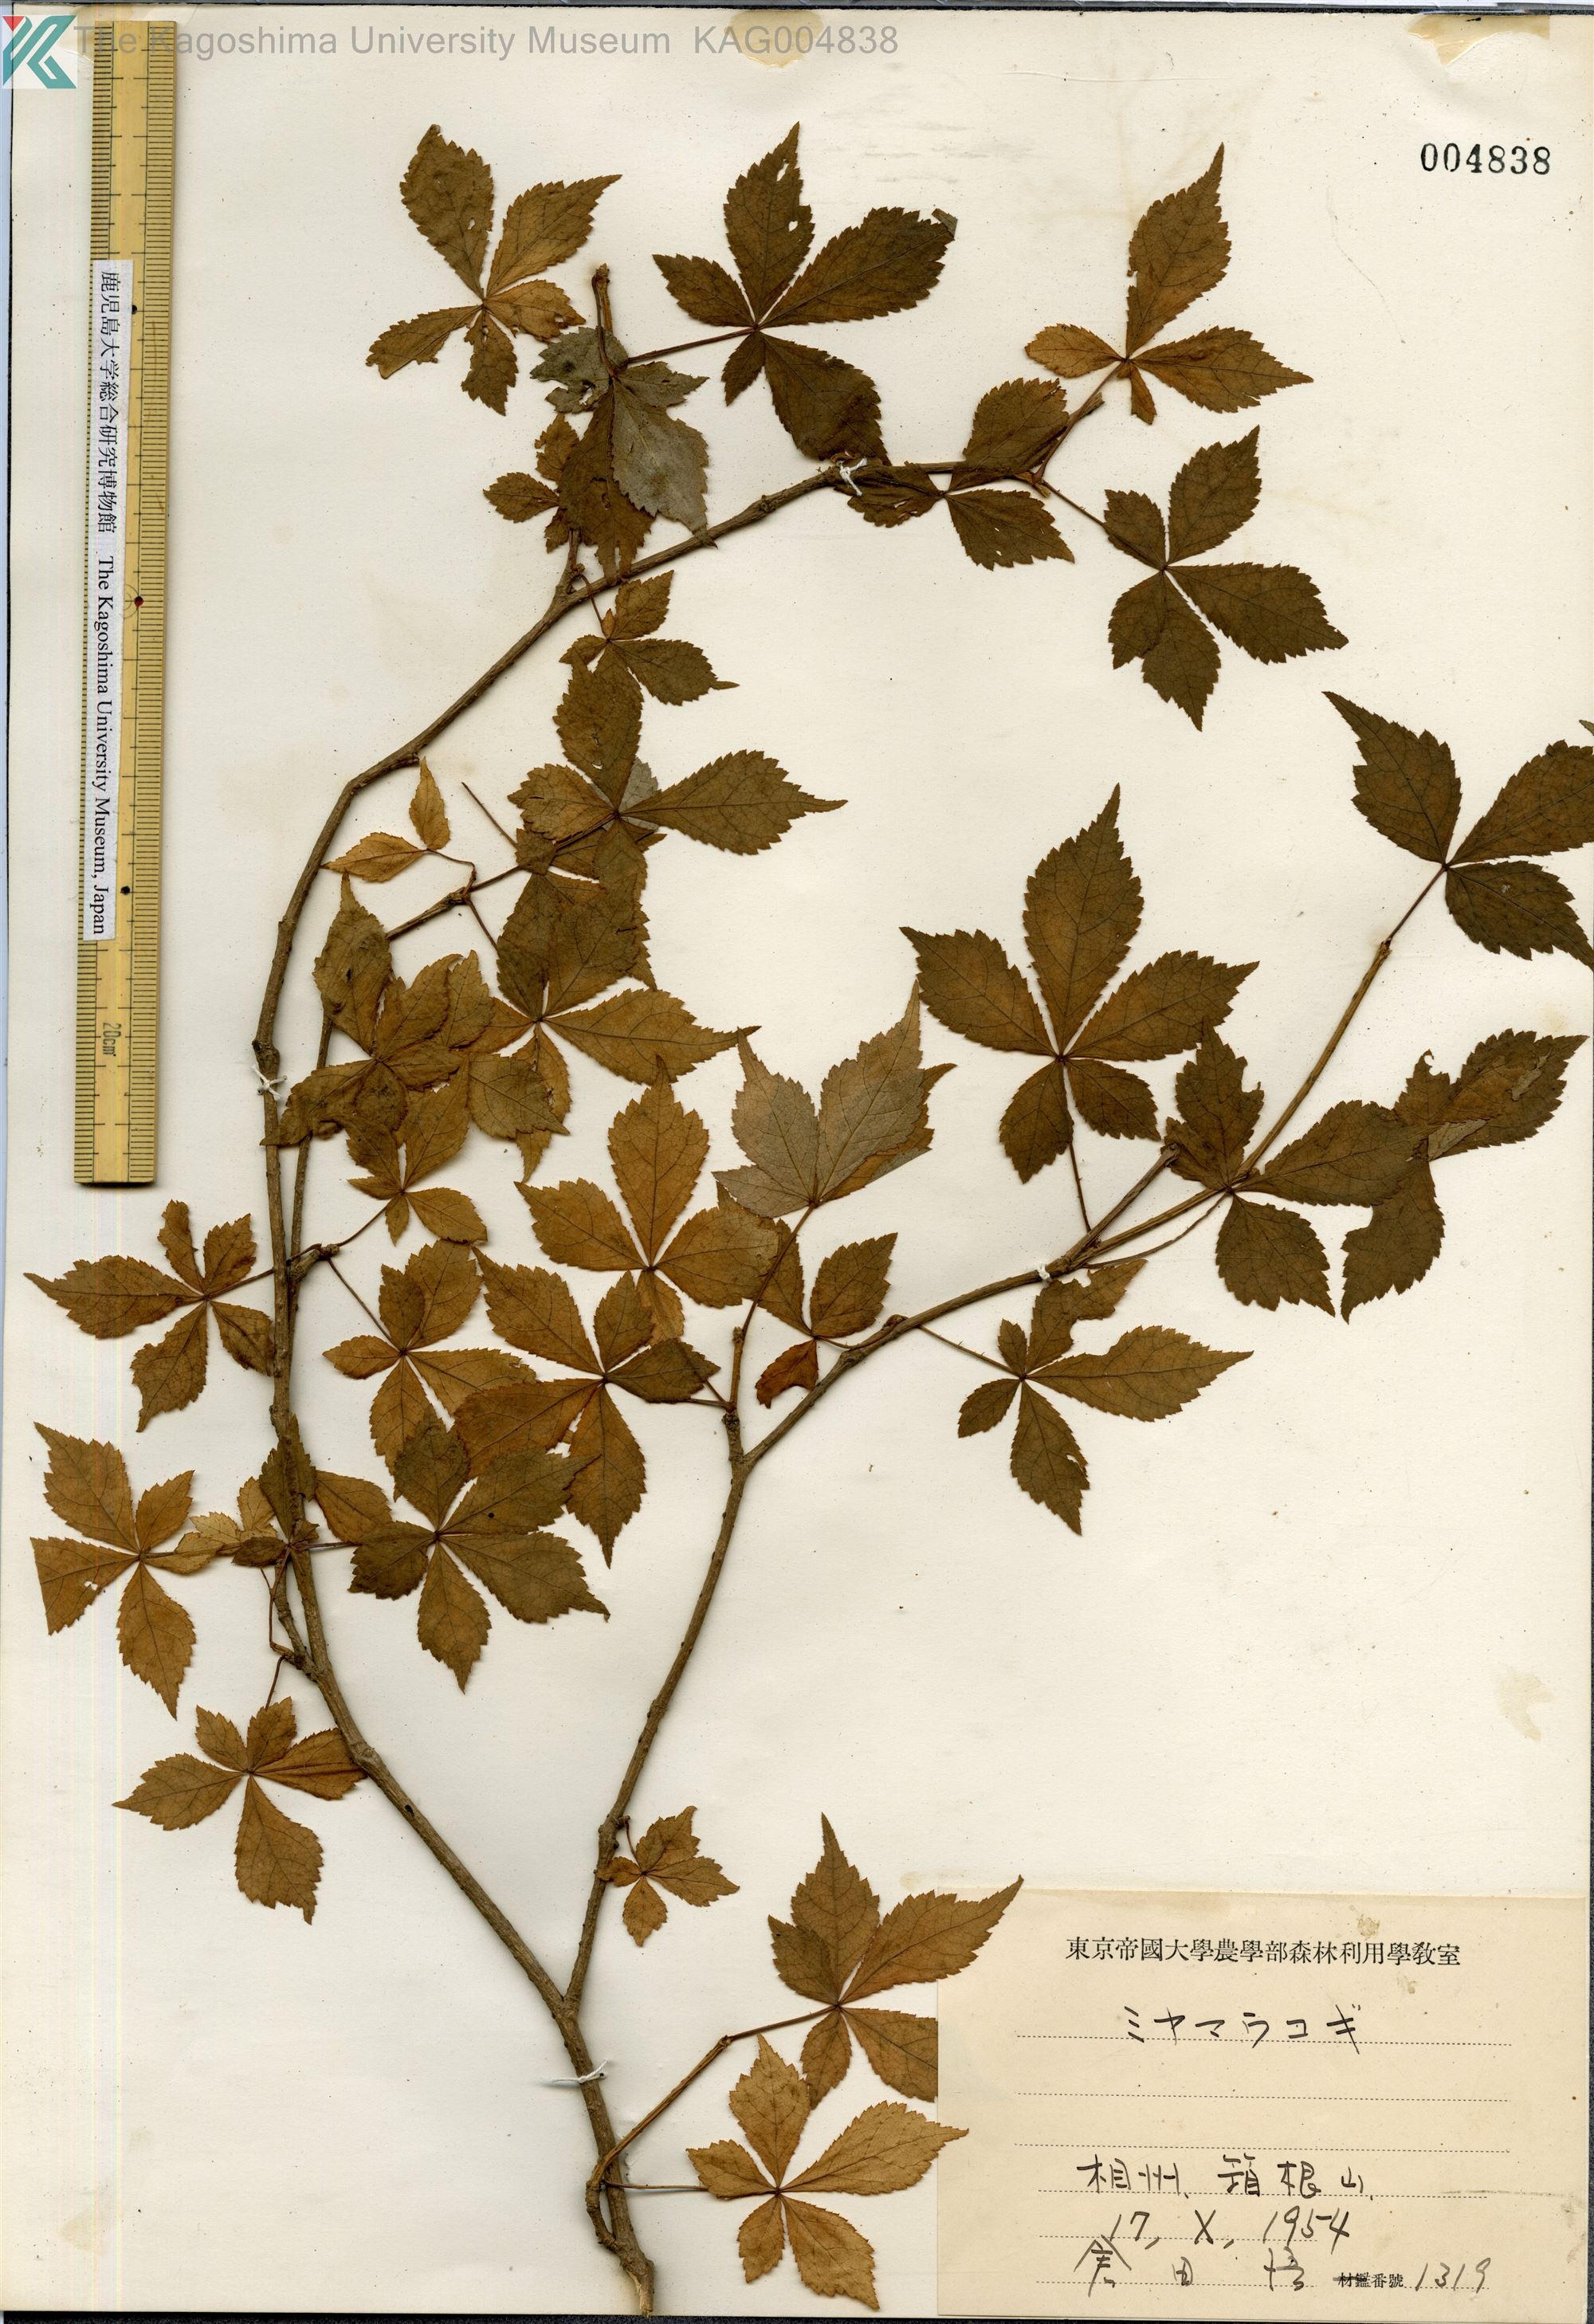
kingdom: Plantae
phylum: Tracheophyta
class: Magnoliopsida
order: Apiales
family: Araliaceae
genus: Eleutherococcus
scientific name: Eleutherococcus trichodon
